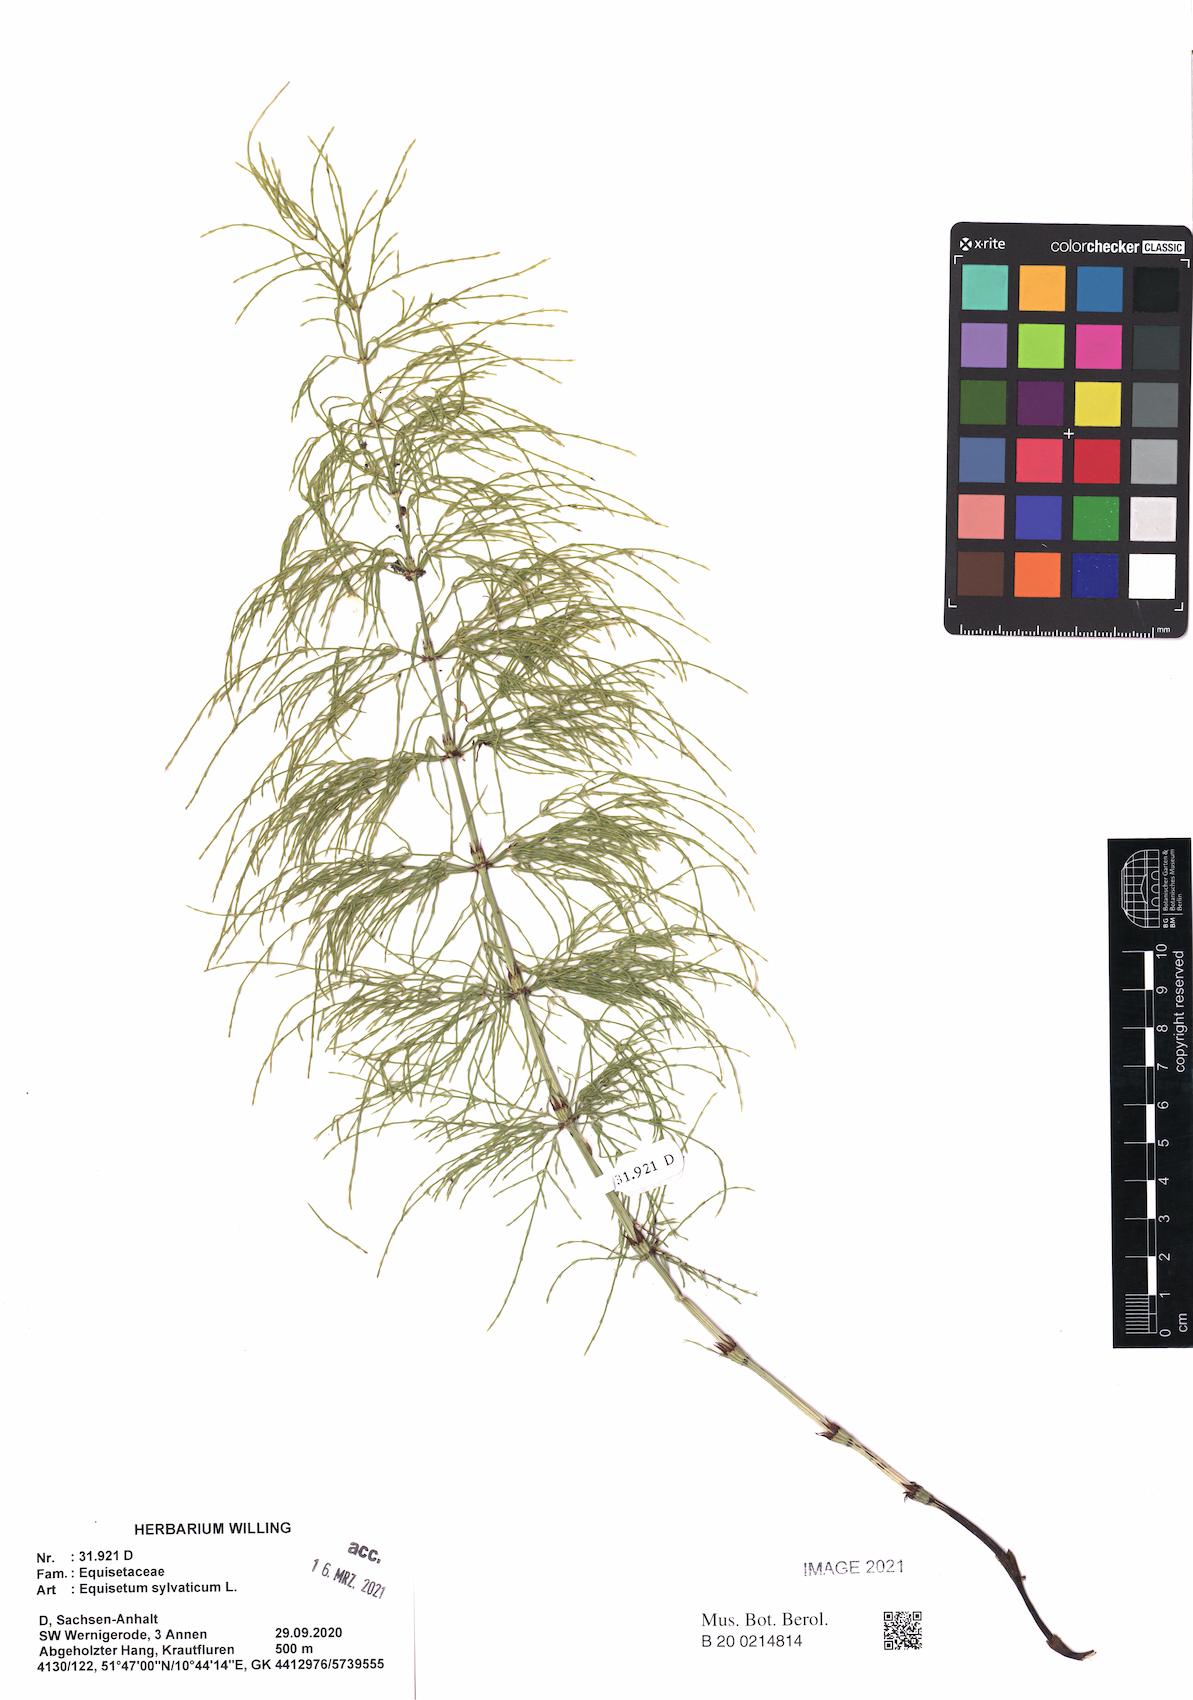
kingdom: Plantae
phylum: Tracheophyta
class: Polypodiopsida
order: Equisetales
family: Equisetaceae
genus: Equisetum
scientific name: Equisetum sylvaticum
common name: Wood horsetail
